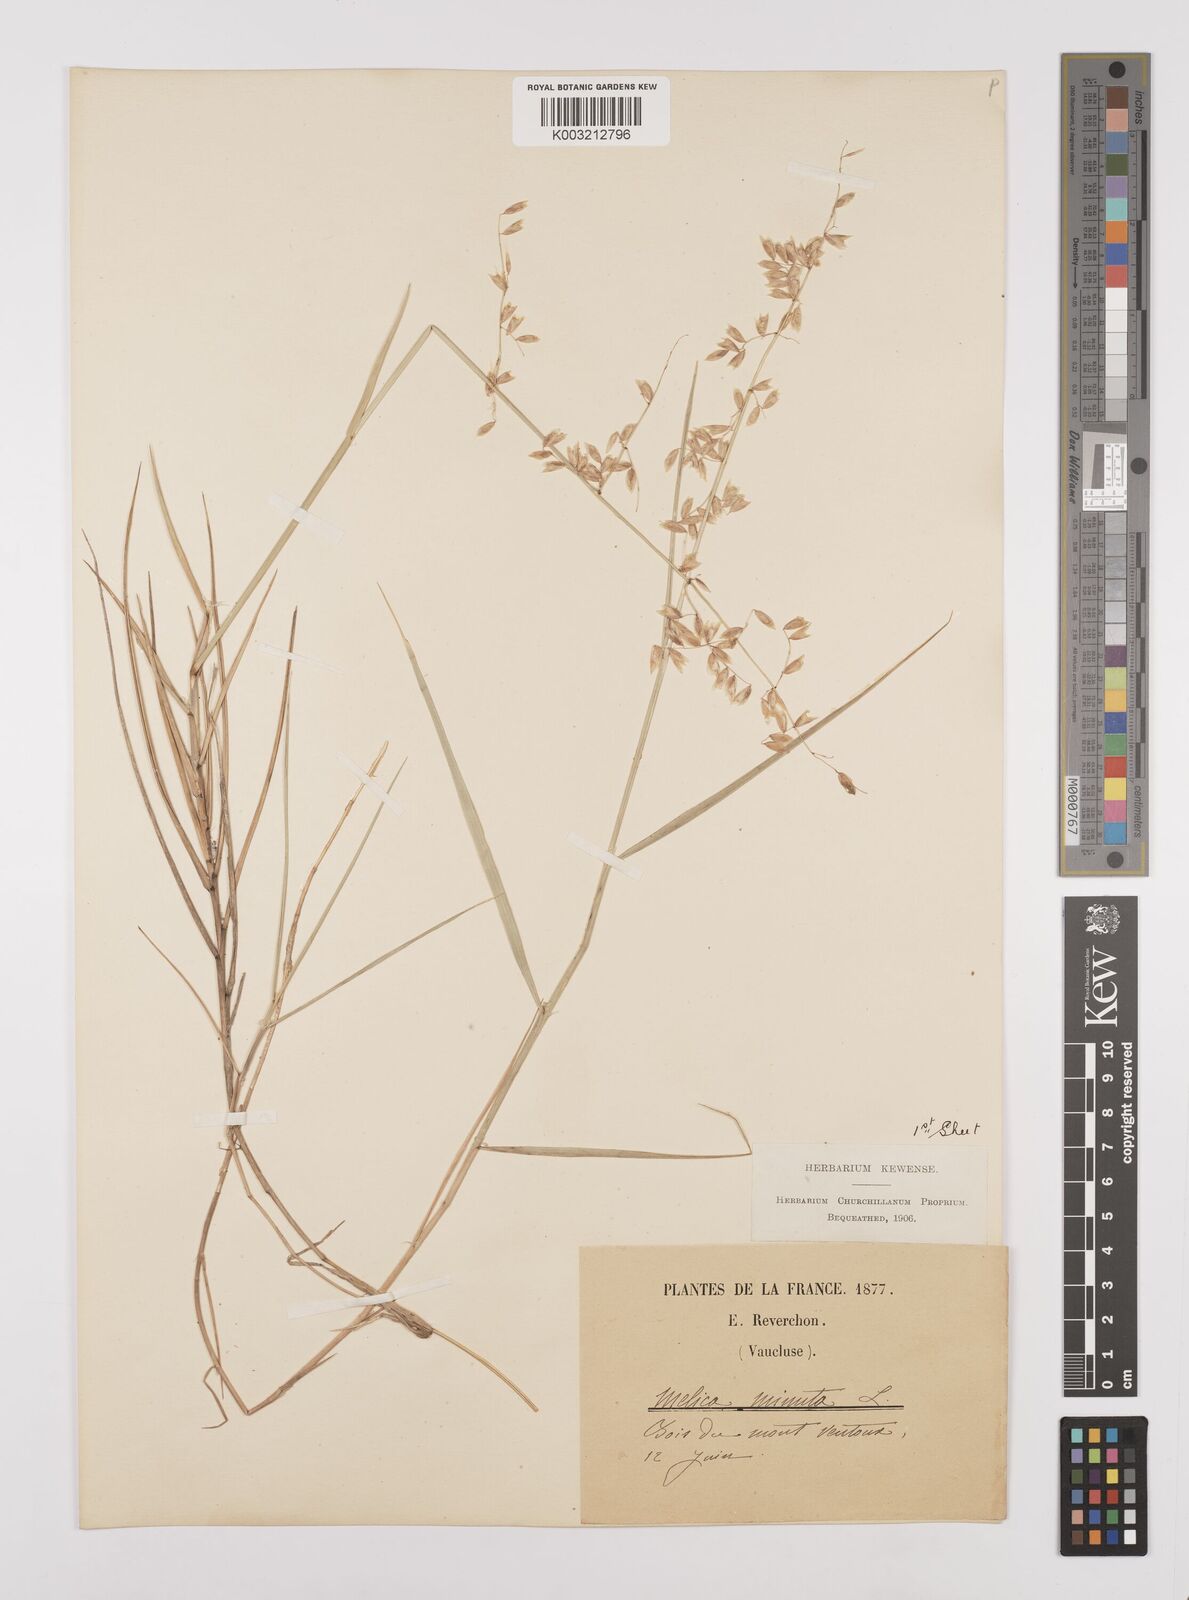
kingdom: Plantae
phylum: Tracheophyta
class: Liliopsida
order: Poales
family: Poaceae
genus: Melica
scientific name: Melica minuta
